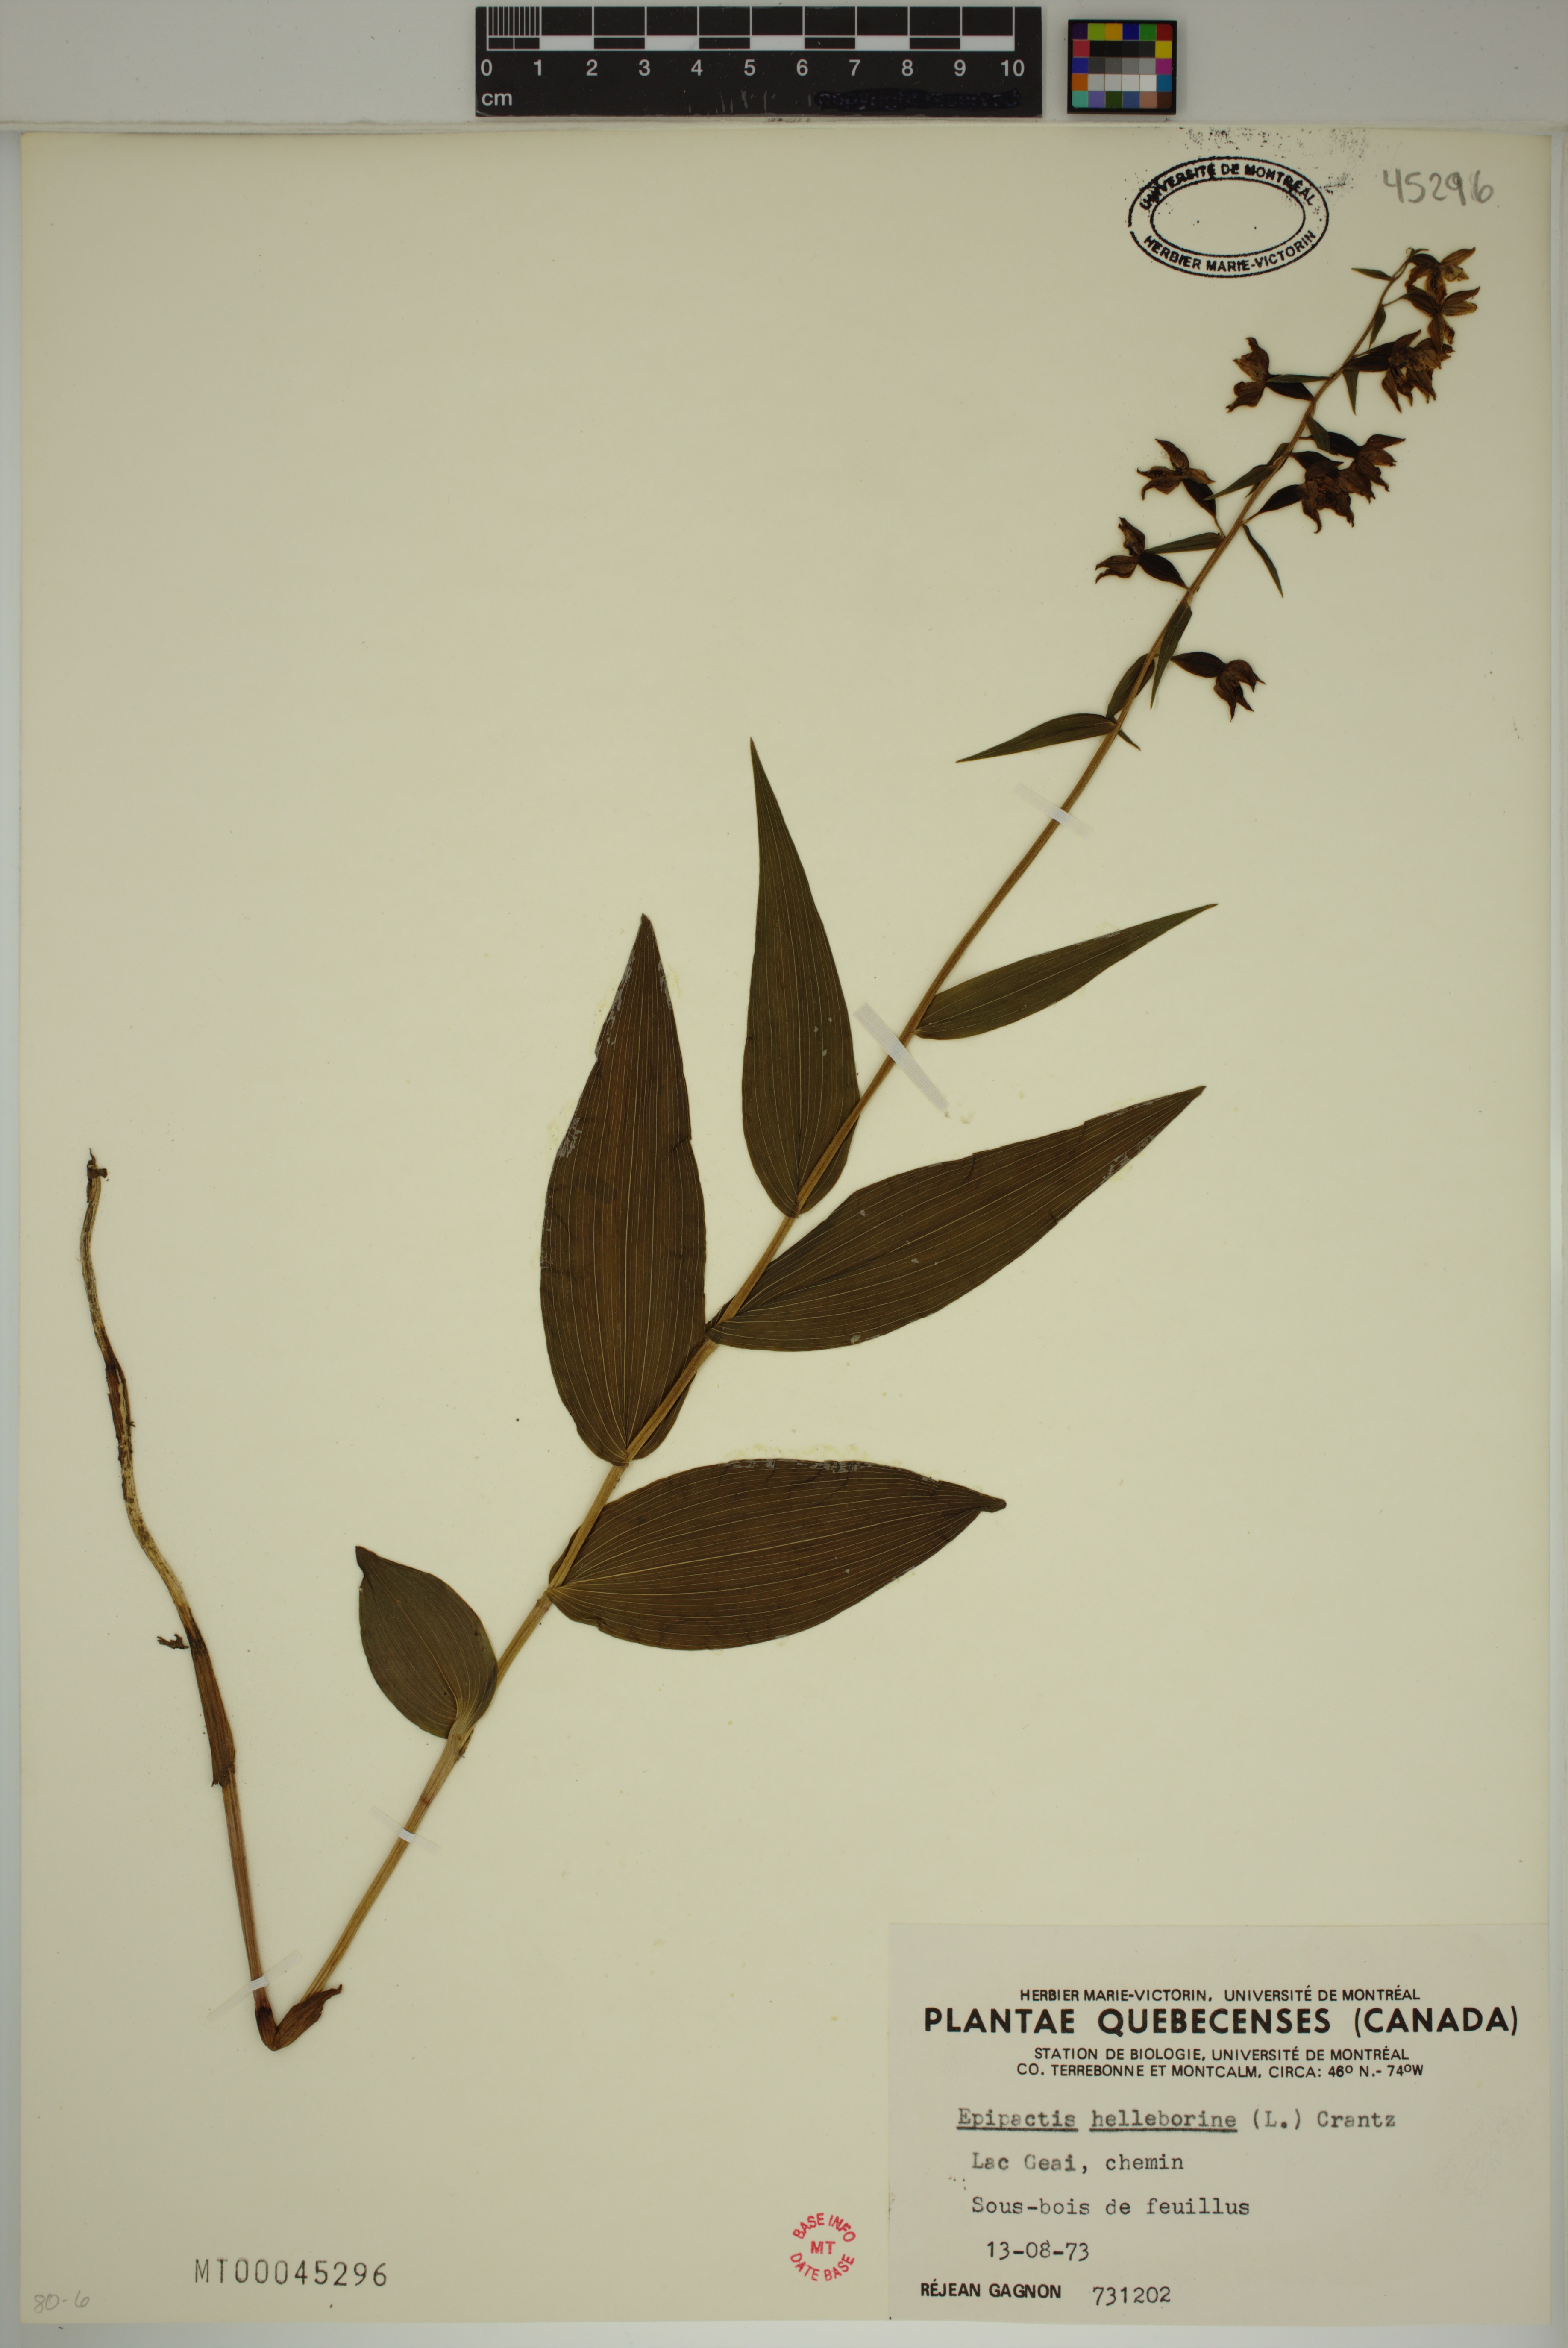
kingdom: Plantae
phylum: Tracheophyta
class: Liliopsida
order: Asparagales
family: Orchidaceae
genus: Epipactis
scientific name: Epipactis helleborine
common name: Broad-leaved helleborine
